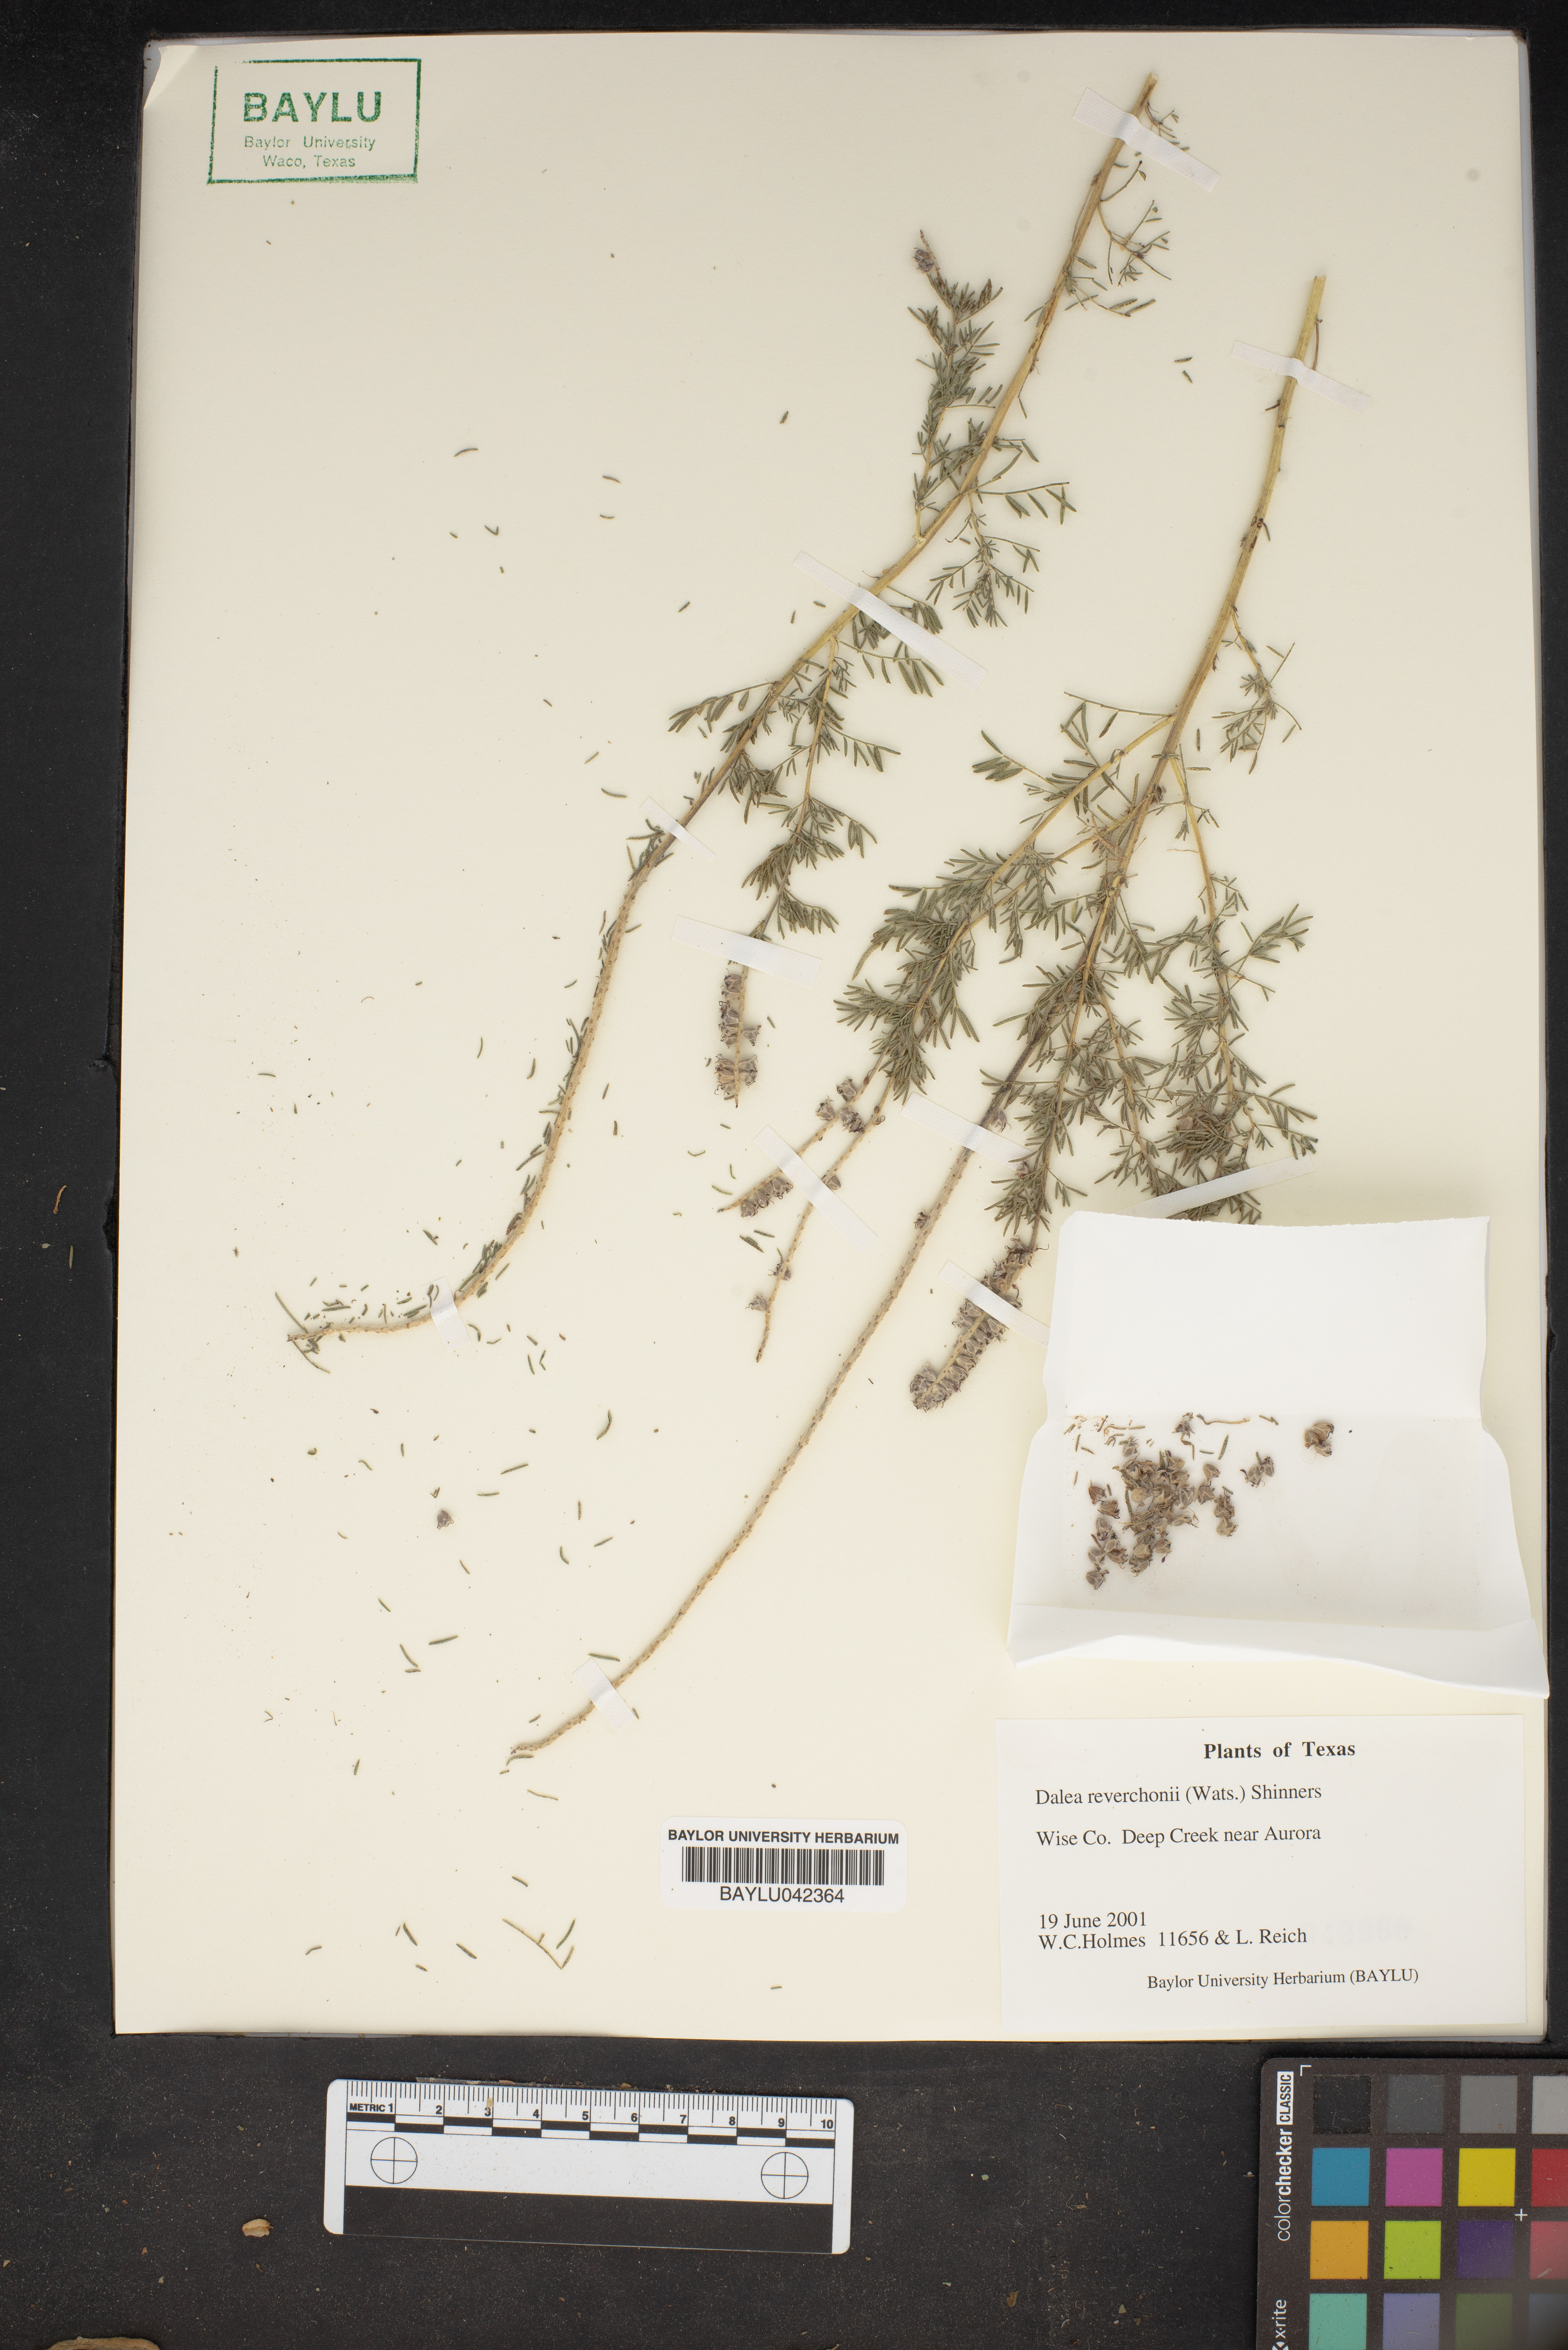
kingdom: Plantae
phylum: Tracheophyta
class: Magnoliopsida
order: Fabales
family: Fabaceae
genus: Dalea
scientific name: Dalea reverchonii
